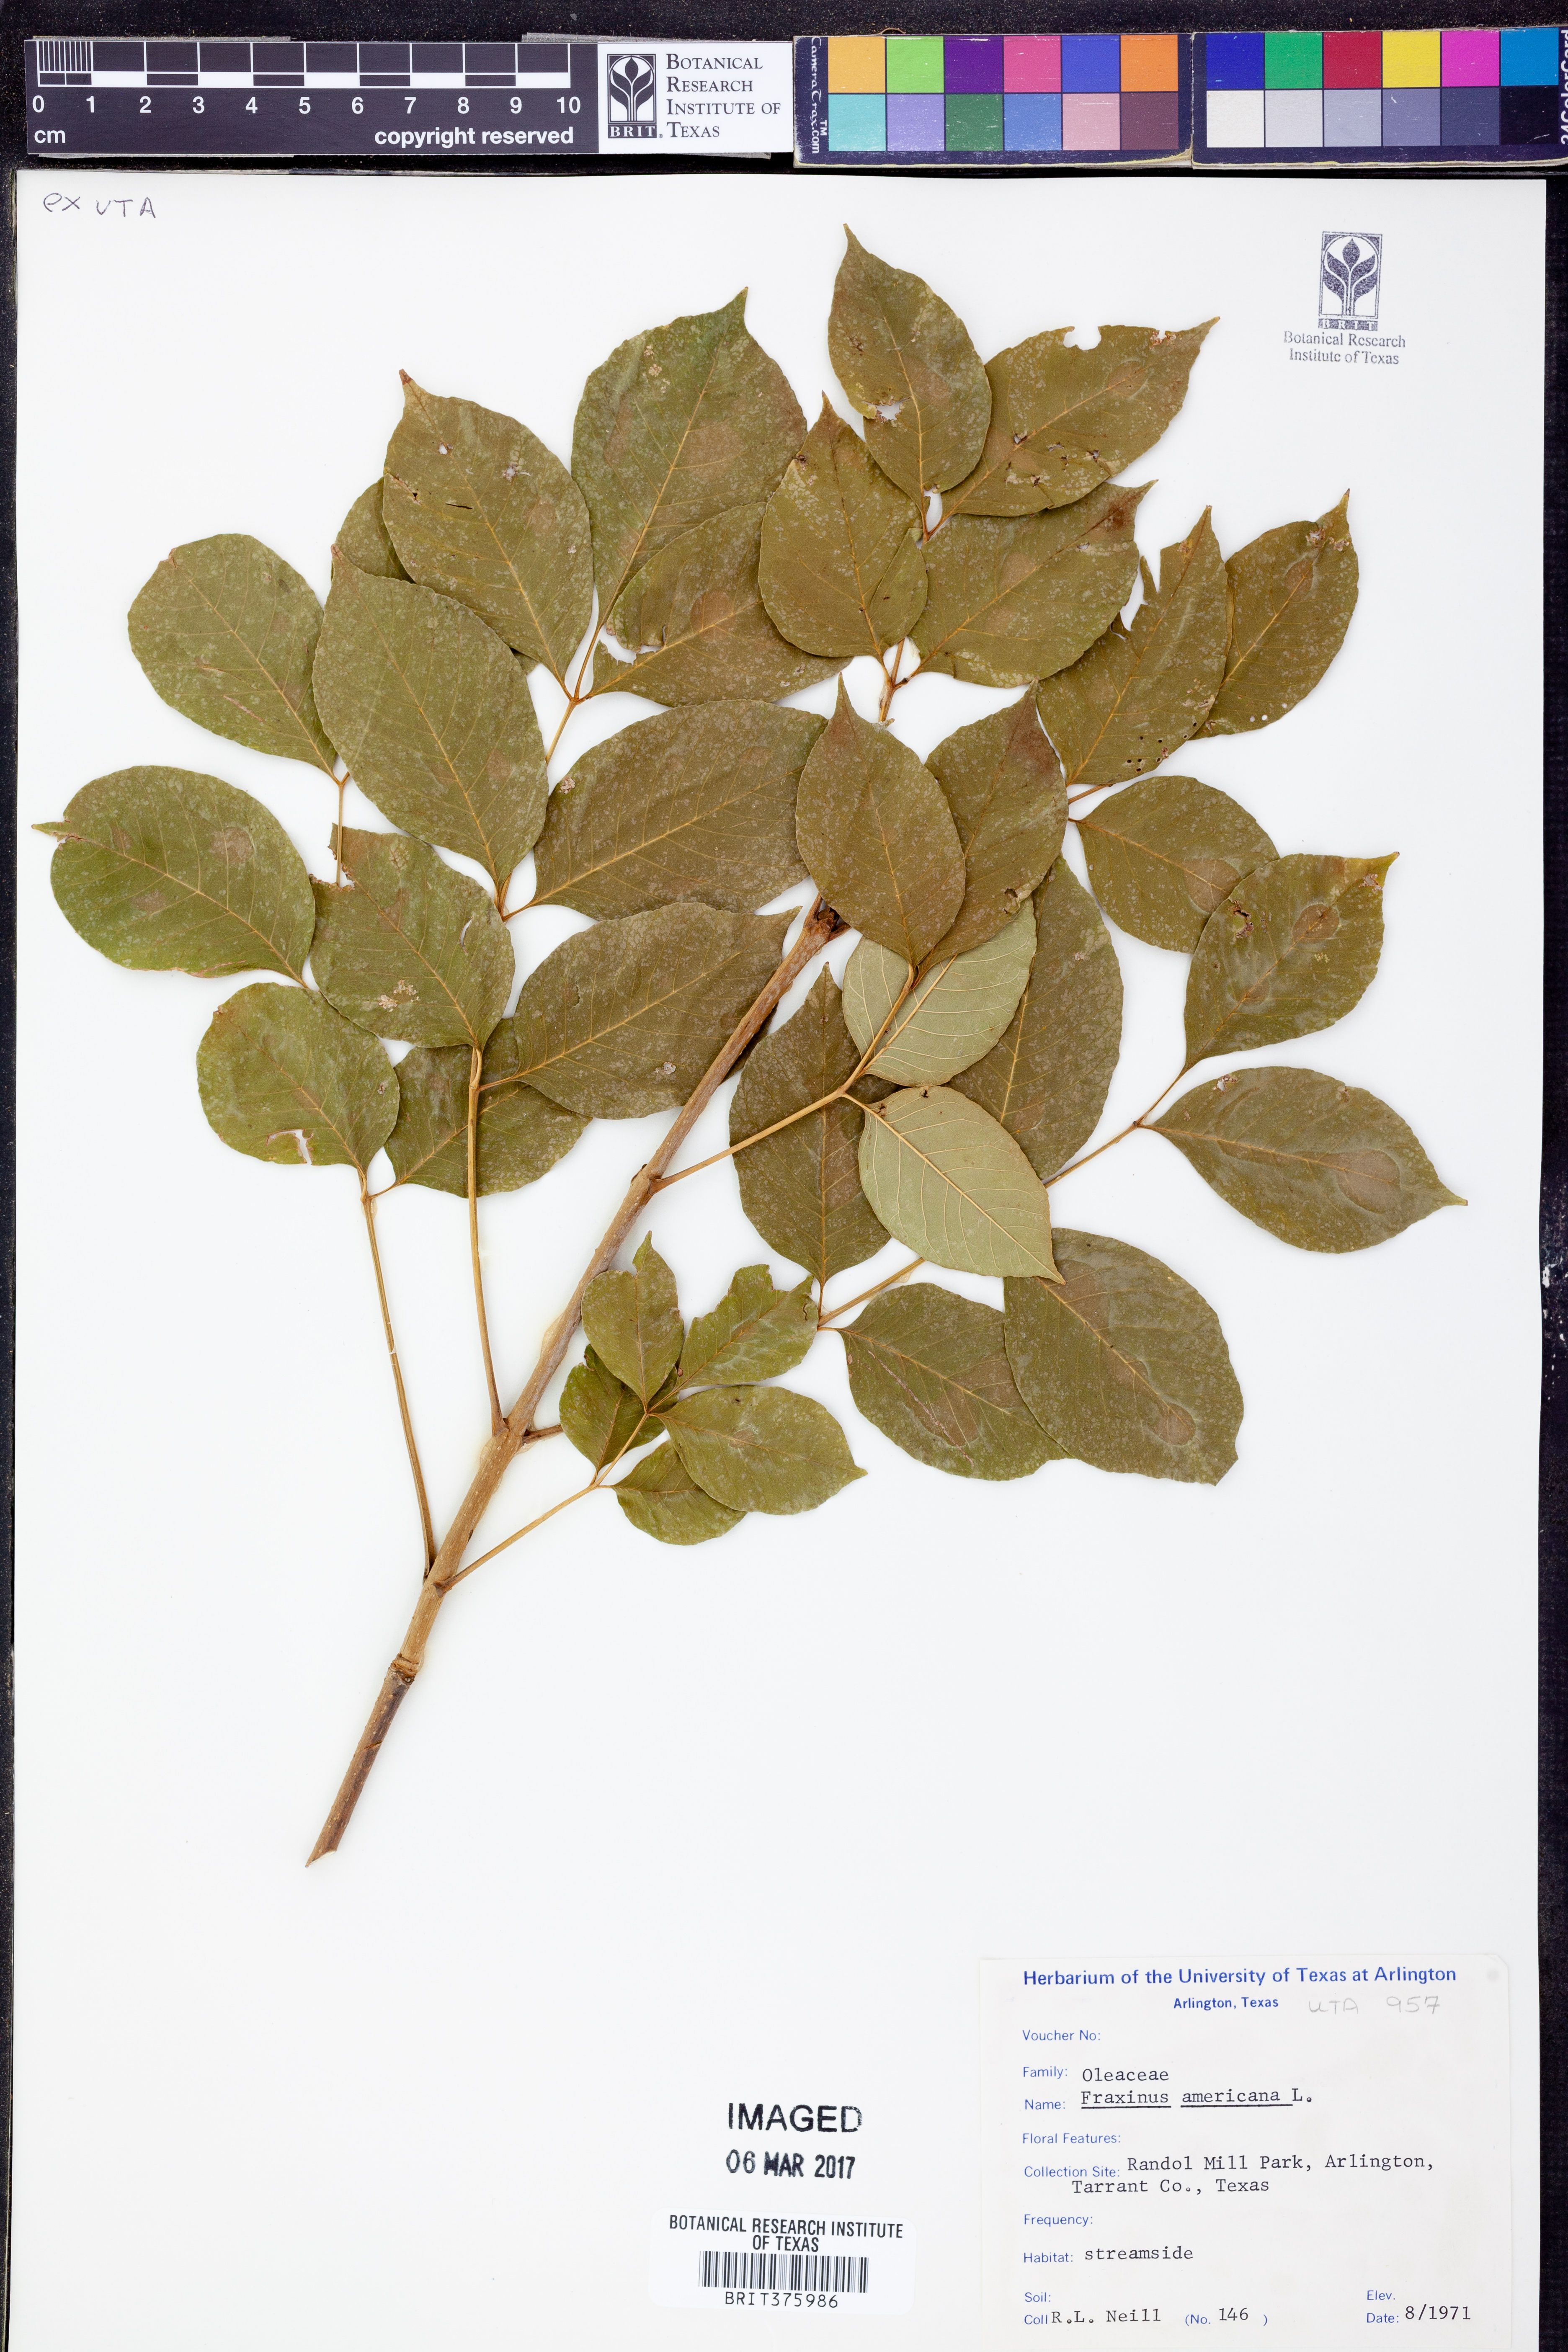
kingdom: Plantae
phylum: Tracheophyta
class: Magnoliopsida
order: Lamiales
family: Oleaceae
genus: Fraxinus
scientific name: Fraxinus americana
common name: White ash
